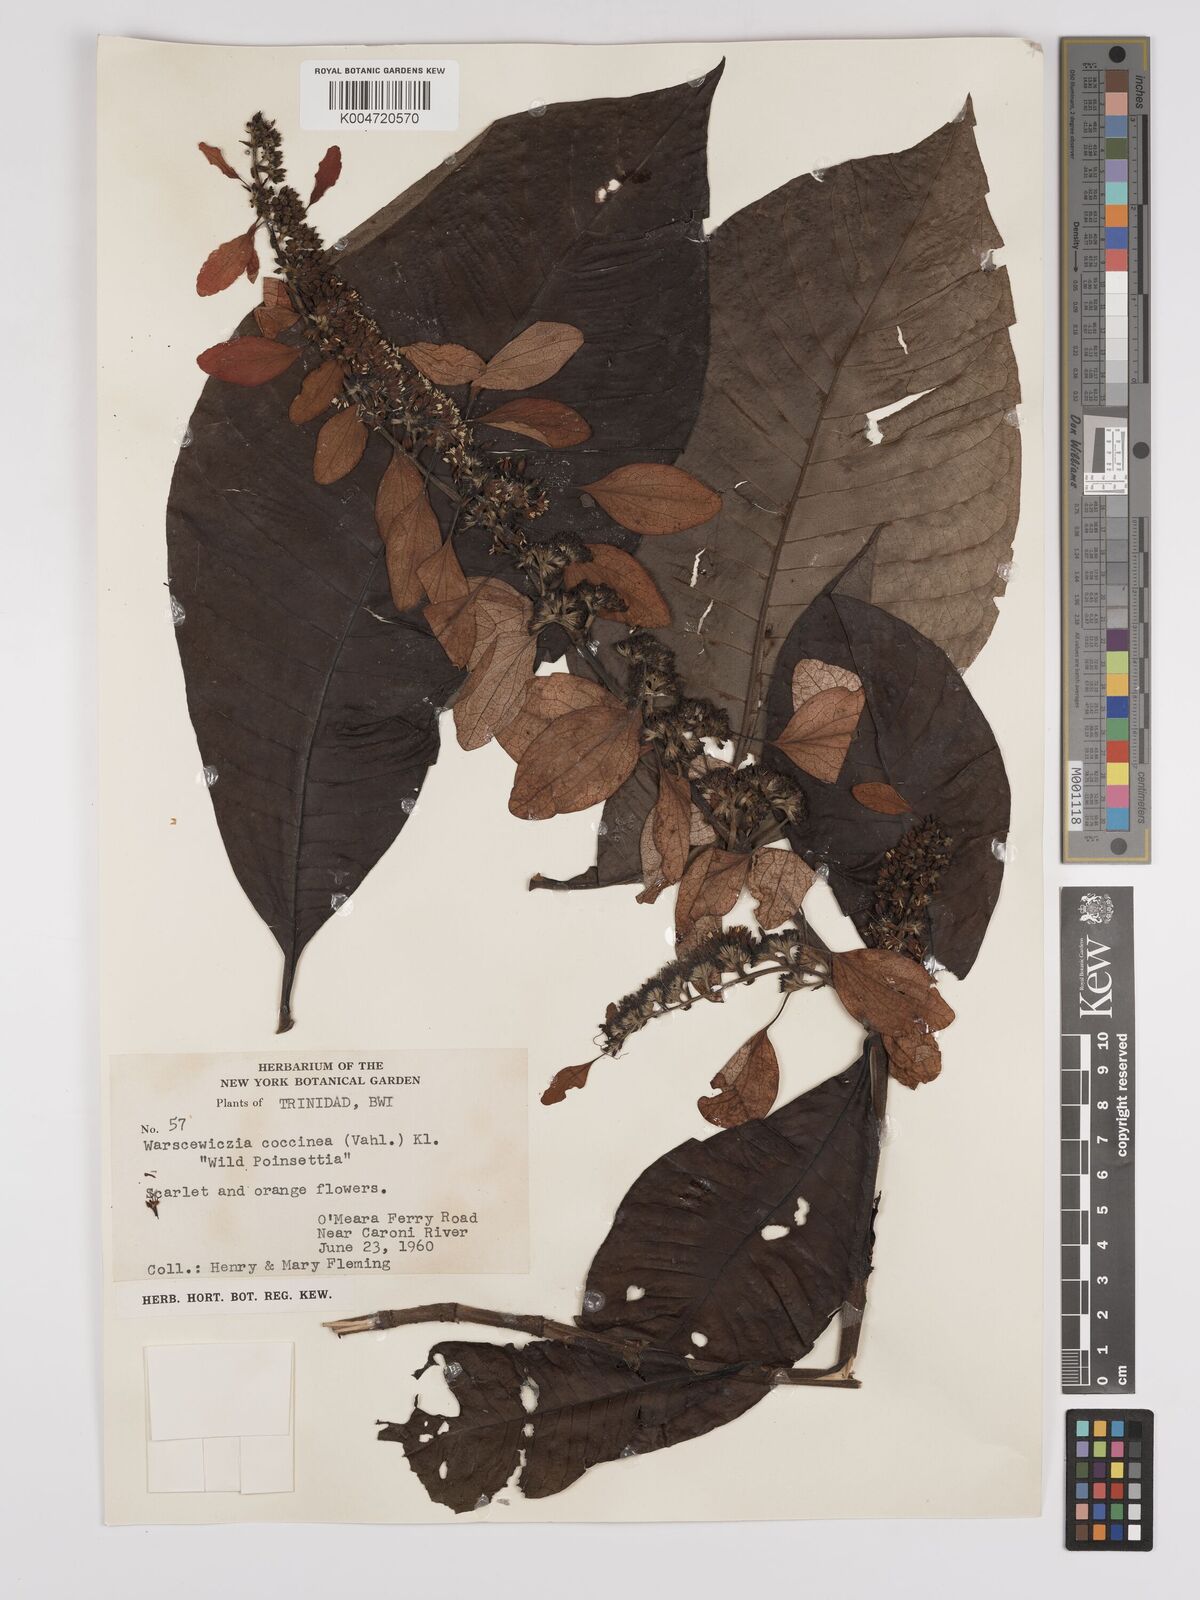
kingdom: Plantae
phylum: Tracheophyta
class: Magnoliopsida
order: Gentianales
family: Rubiaceae
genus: Warszewiczia
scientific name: Warszewiczia coccinea
